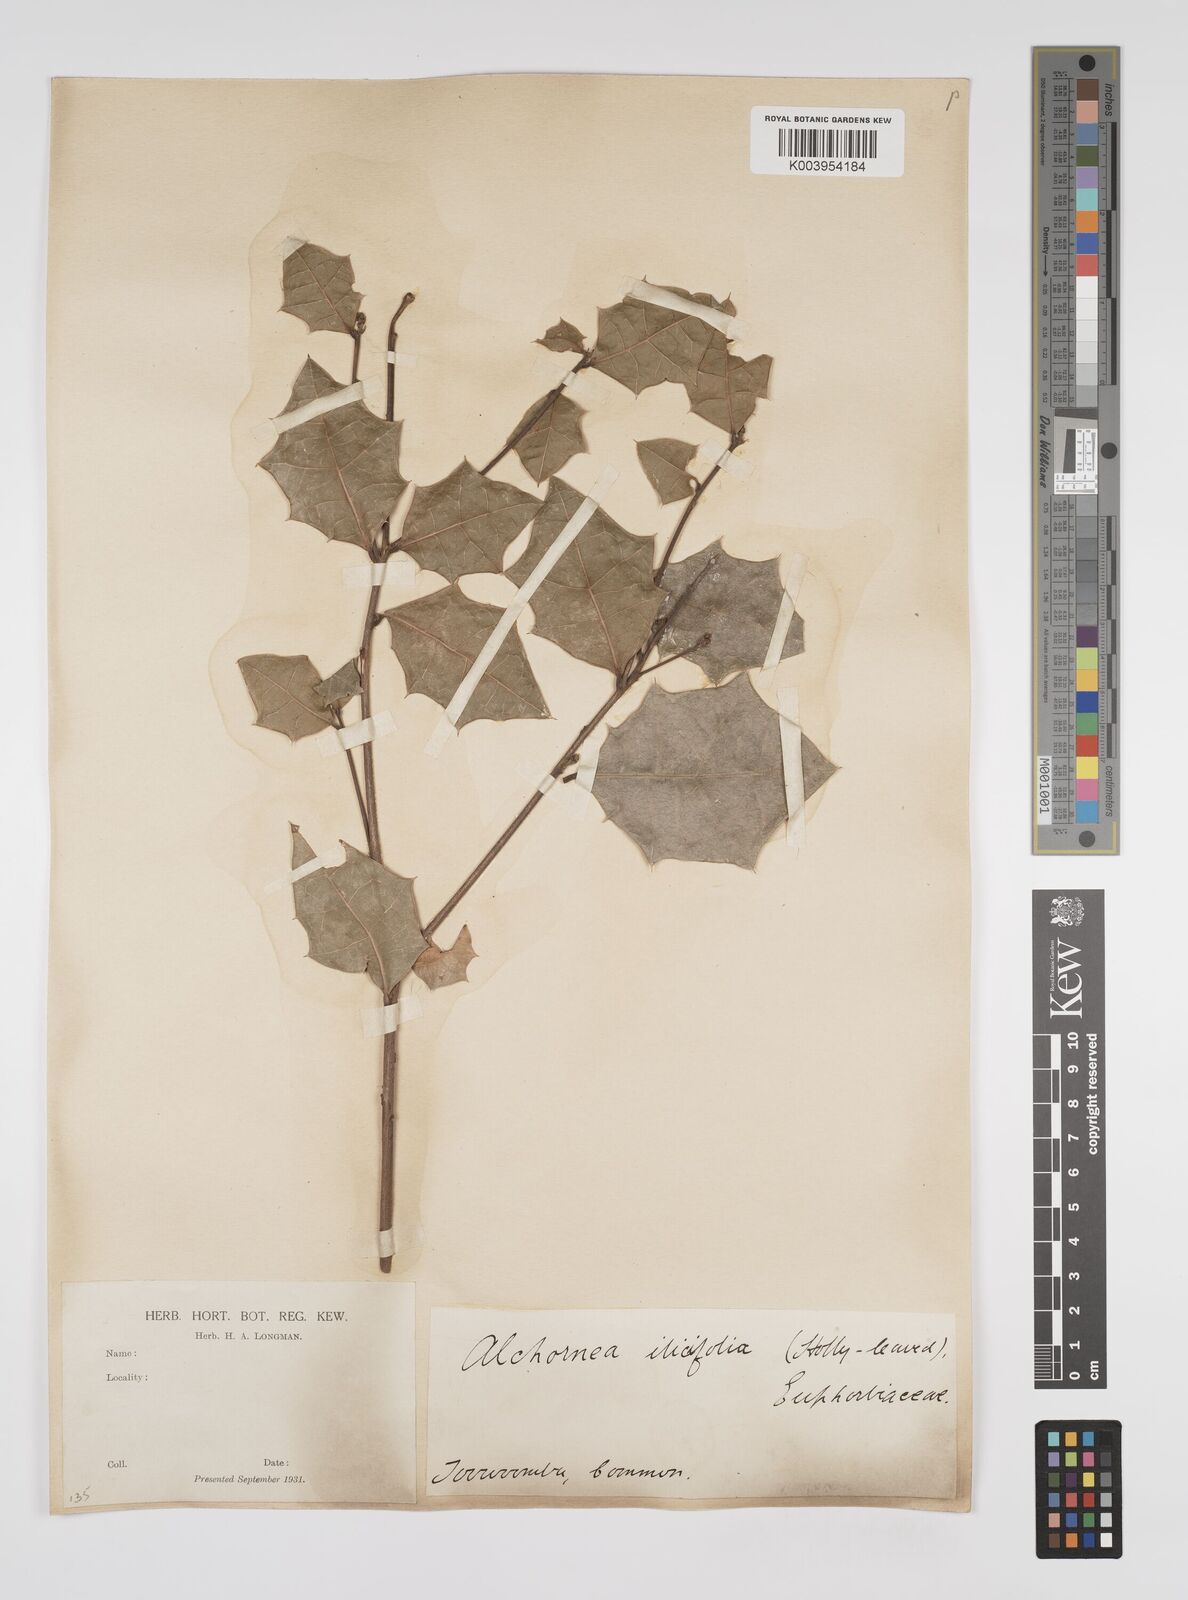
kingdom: Plantae
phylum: Tracheophyta
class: Magnoliopsida
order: Malpighiales
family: Euphorbiaceae
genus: Alchornea
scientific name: Alchornea ilicifolia
